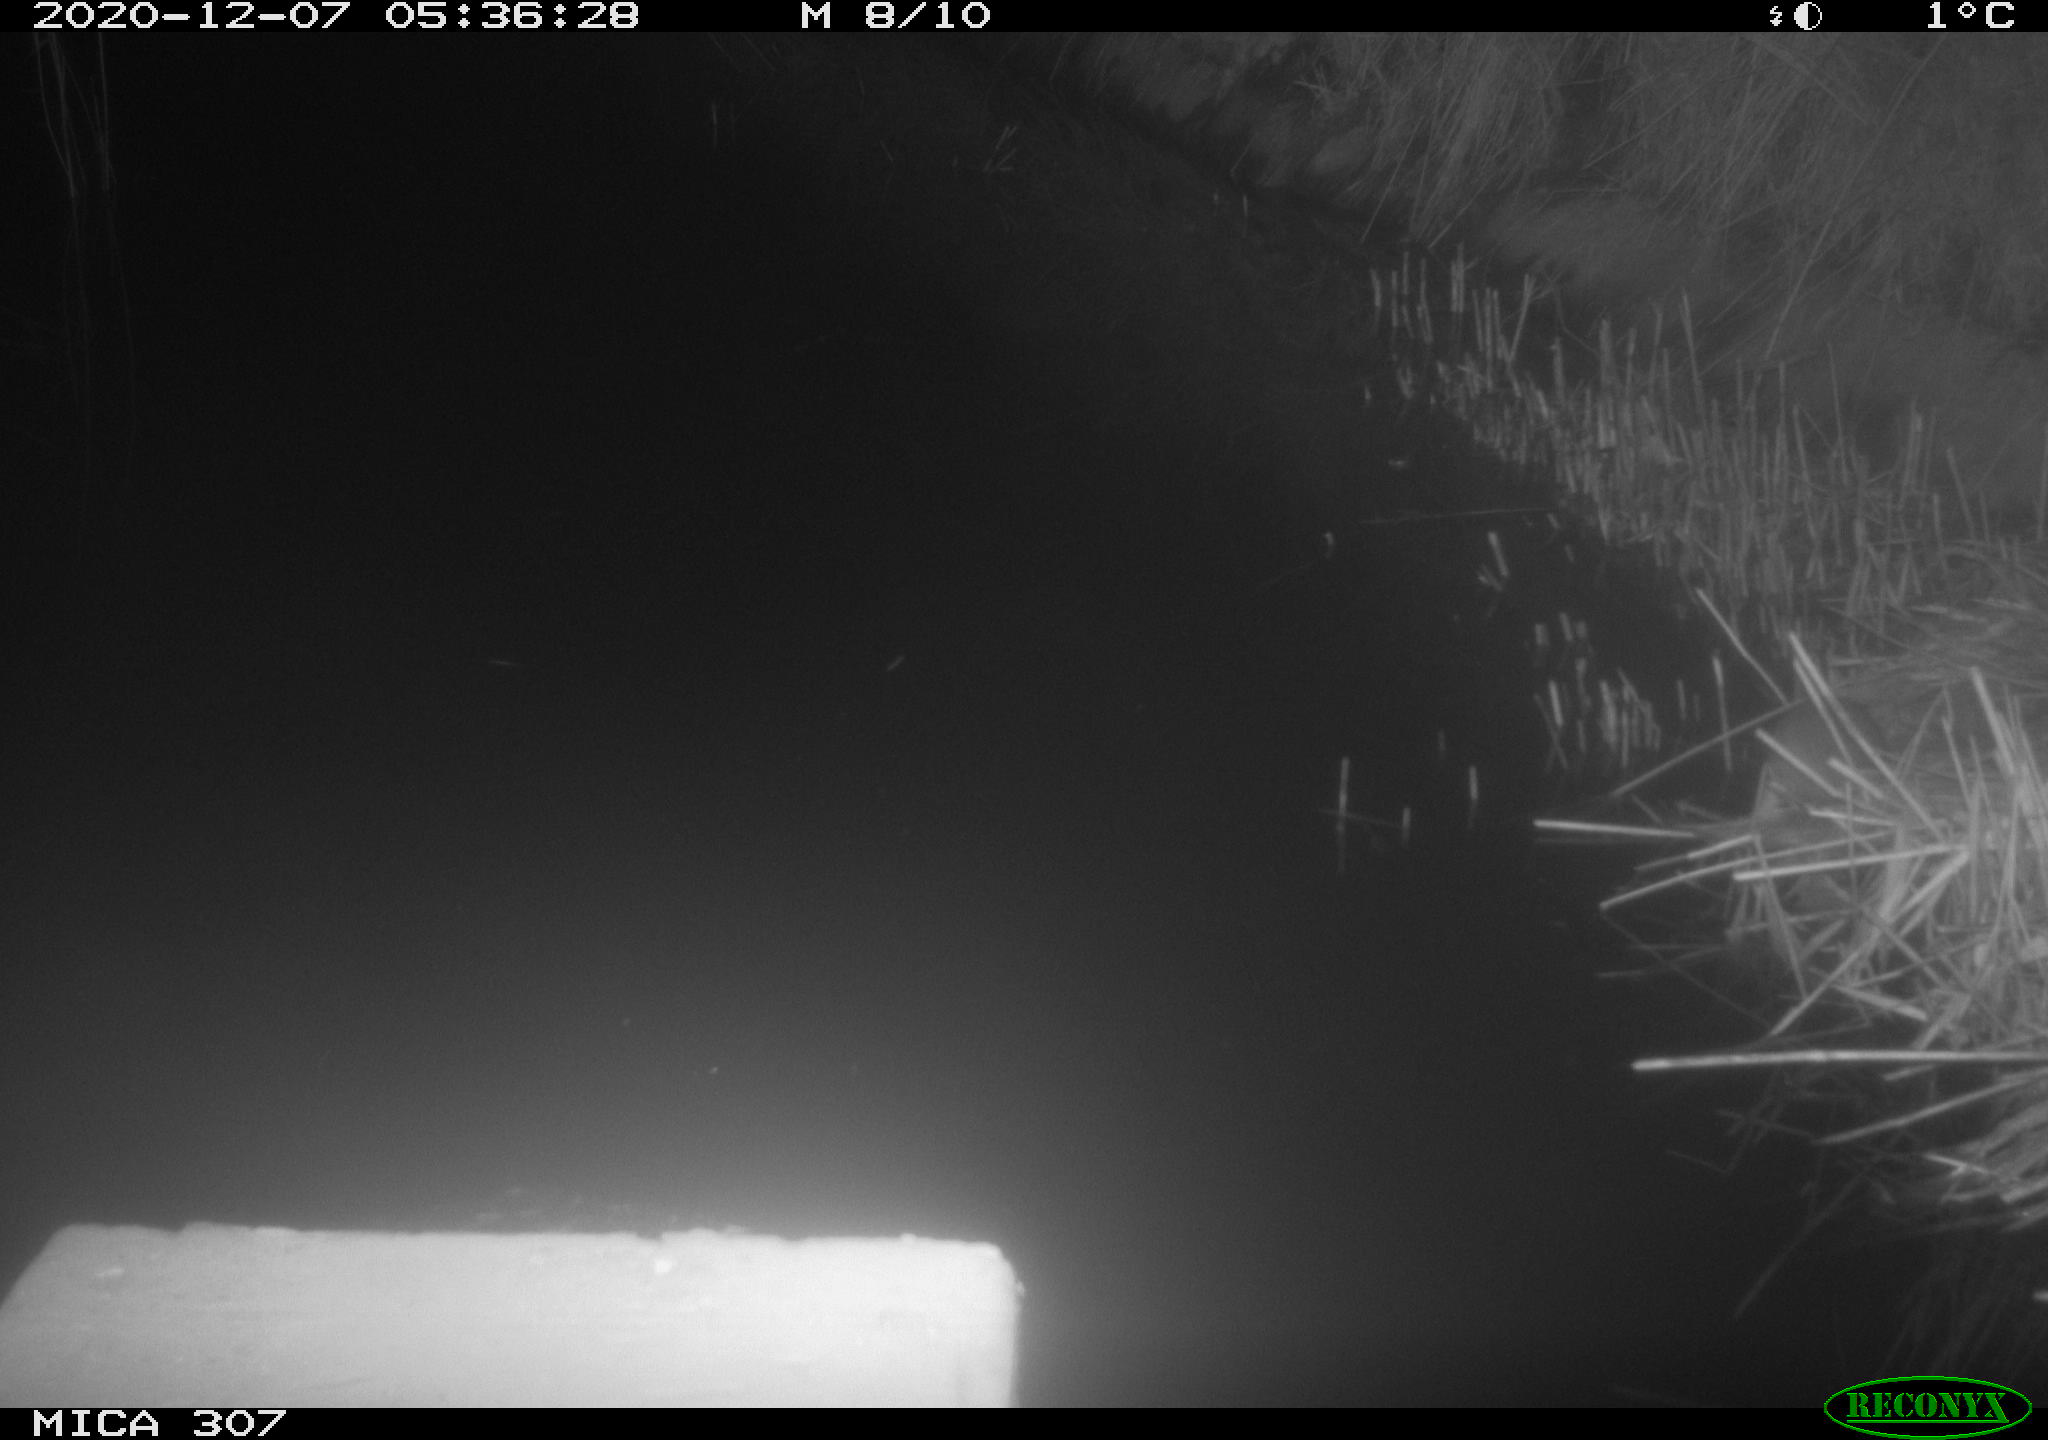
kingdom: Animalia
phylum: Chordata
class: Mammalia
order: Rodentia
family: Muridae
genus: Rattus
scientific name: Rattus norvegicus
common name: Brown rat
